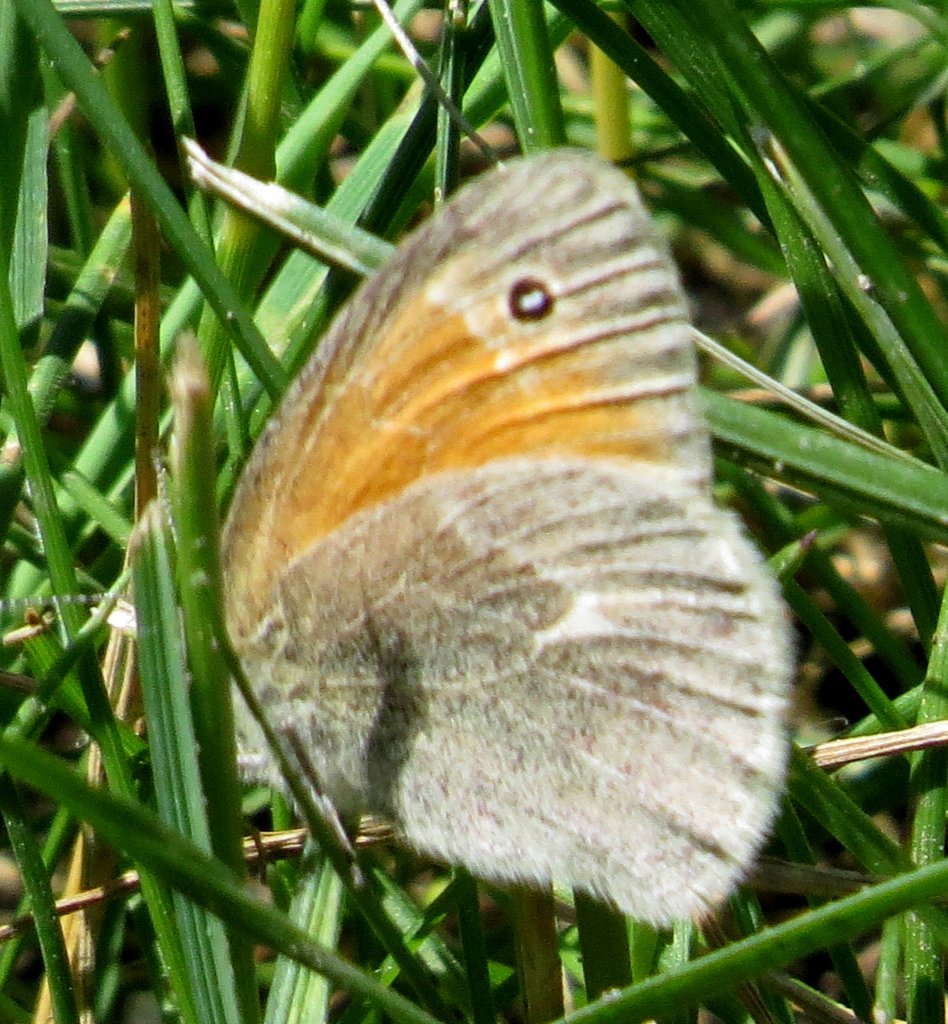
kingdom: Animalia
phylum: Arthropoda
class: Insecta
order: Lepidoptera
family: Nymphalidae
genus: Coenonympha
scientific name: Coenonympha tullia
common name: Large Heath
